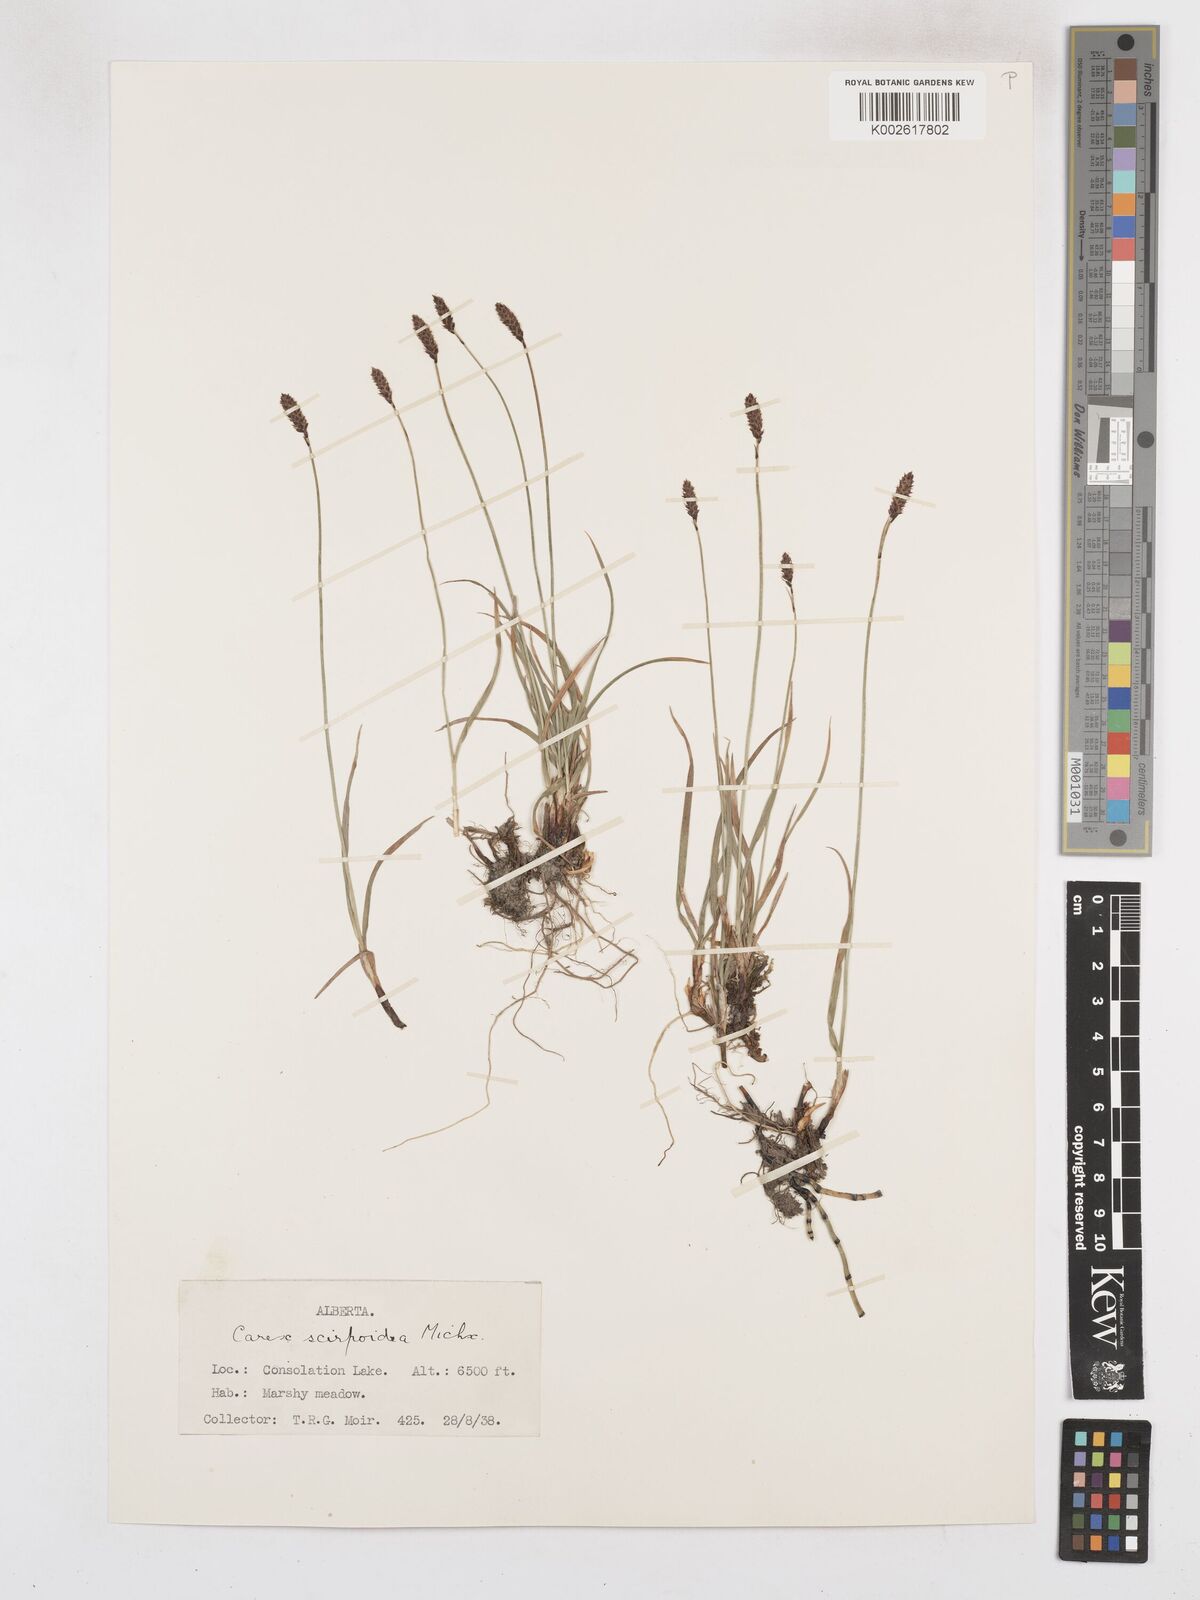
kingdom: Plantae
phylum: Tracheophyta
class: Liliopsida
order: Poales
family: Cyperaceae
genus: Carex
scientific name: Carex scirpoidea
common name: Canada single-spike sedge
